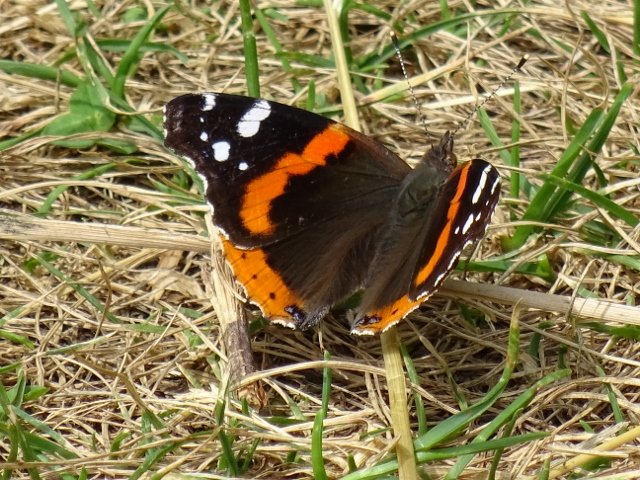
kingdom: Animalia
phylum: Arthropoda
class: Insecta
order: Lepidoptera
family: Nymphalidae
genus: Vanessa
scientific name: Vanessa atalanta
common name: Red Admiral
